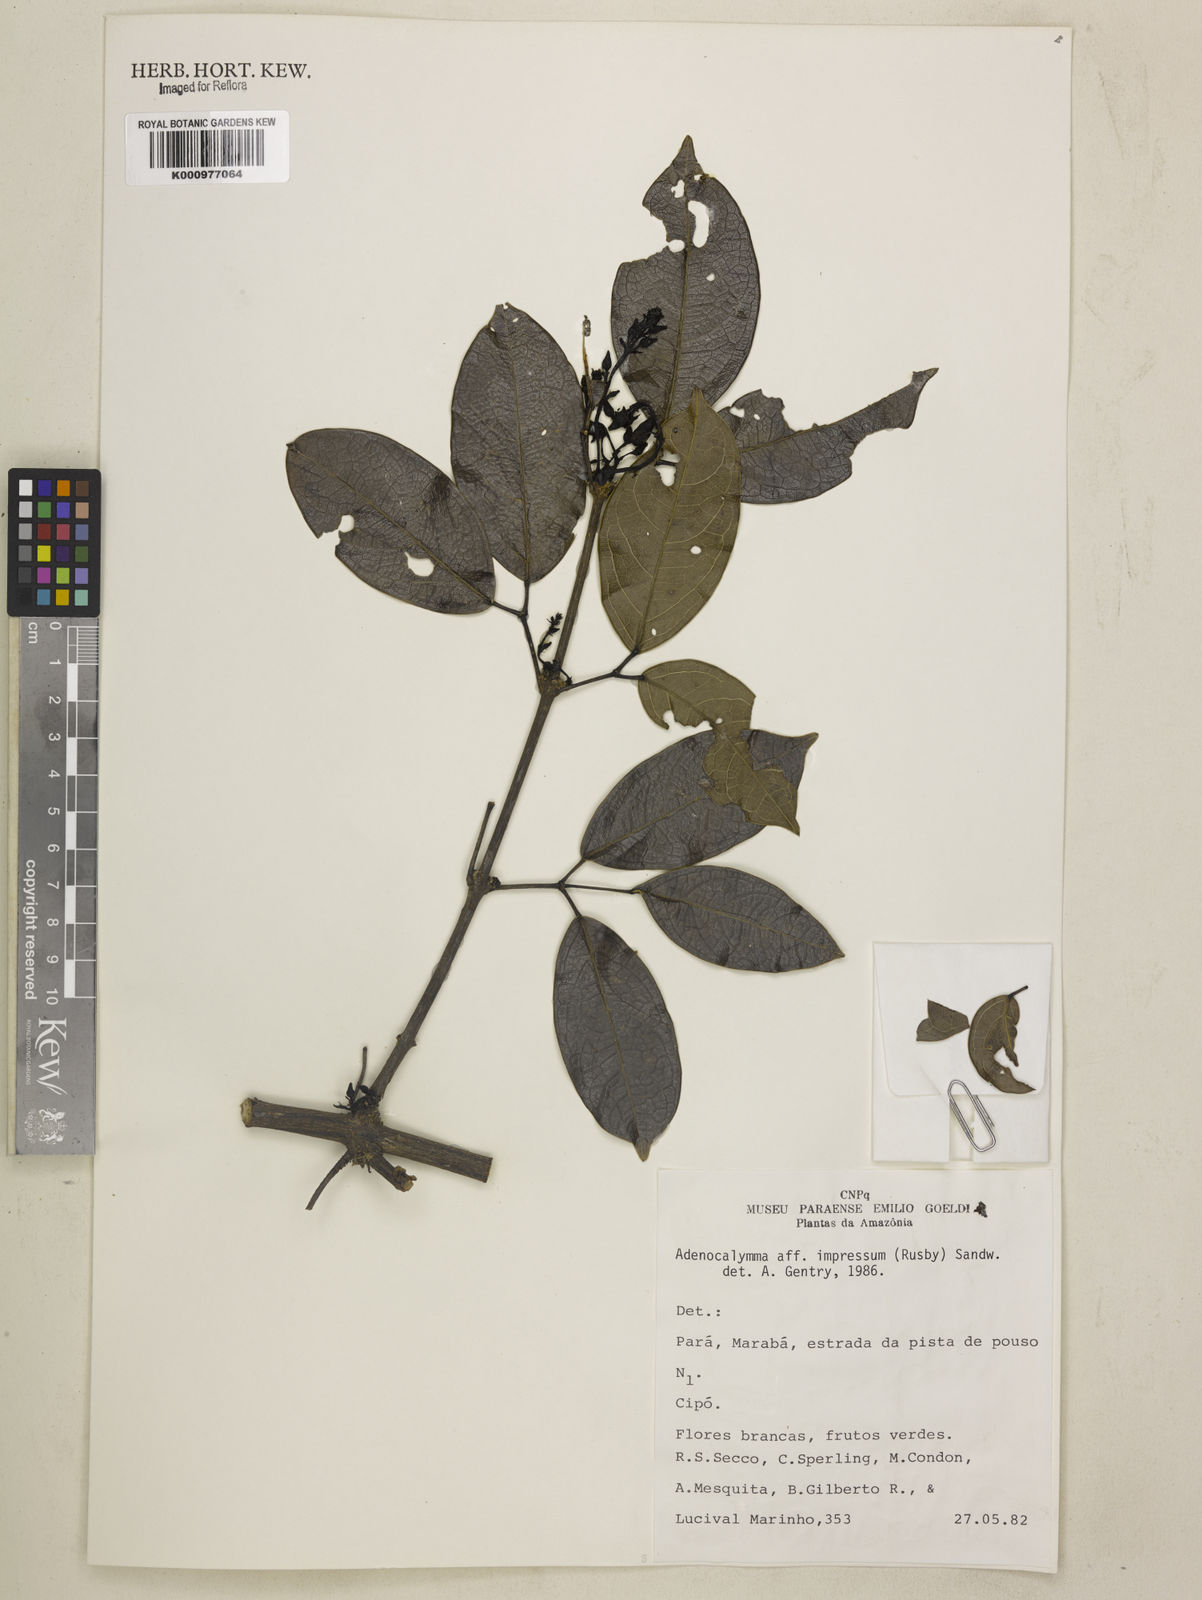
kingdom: Plantae
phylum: Tracheophyta
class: Magnoliopsida
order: Lamiales
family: Bignoniaceae
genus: Adenocalymma
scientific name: Adenocalymma impressum
